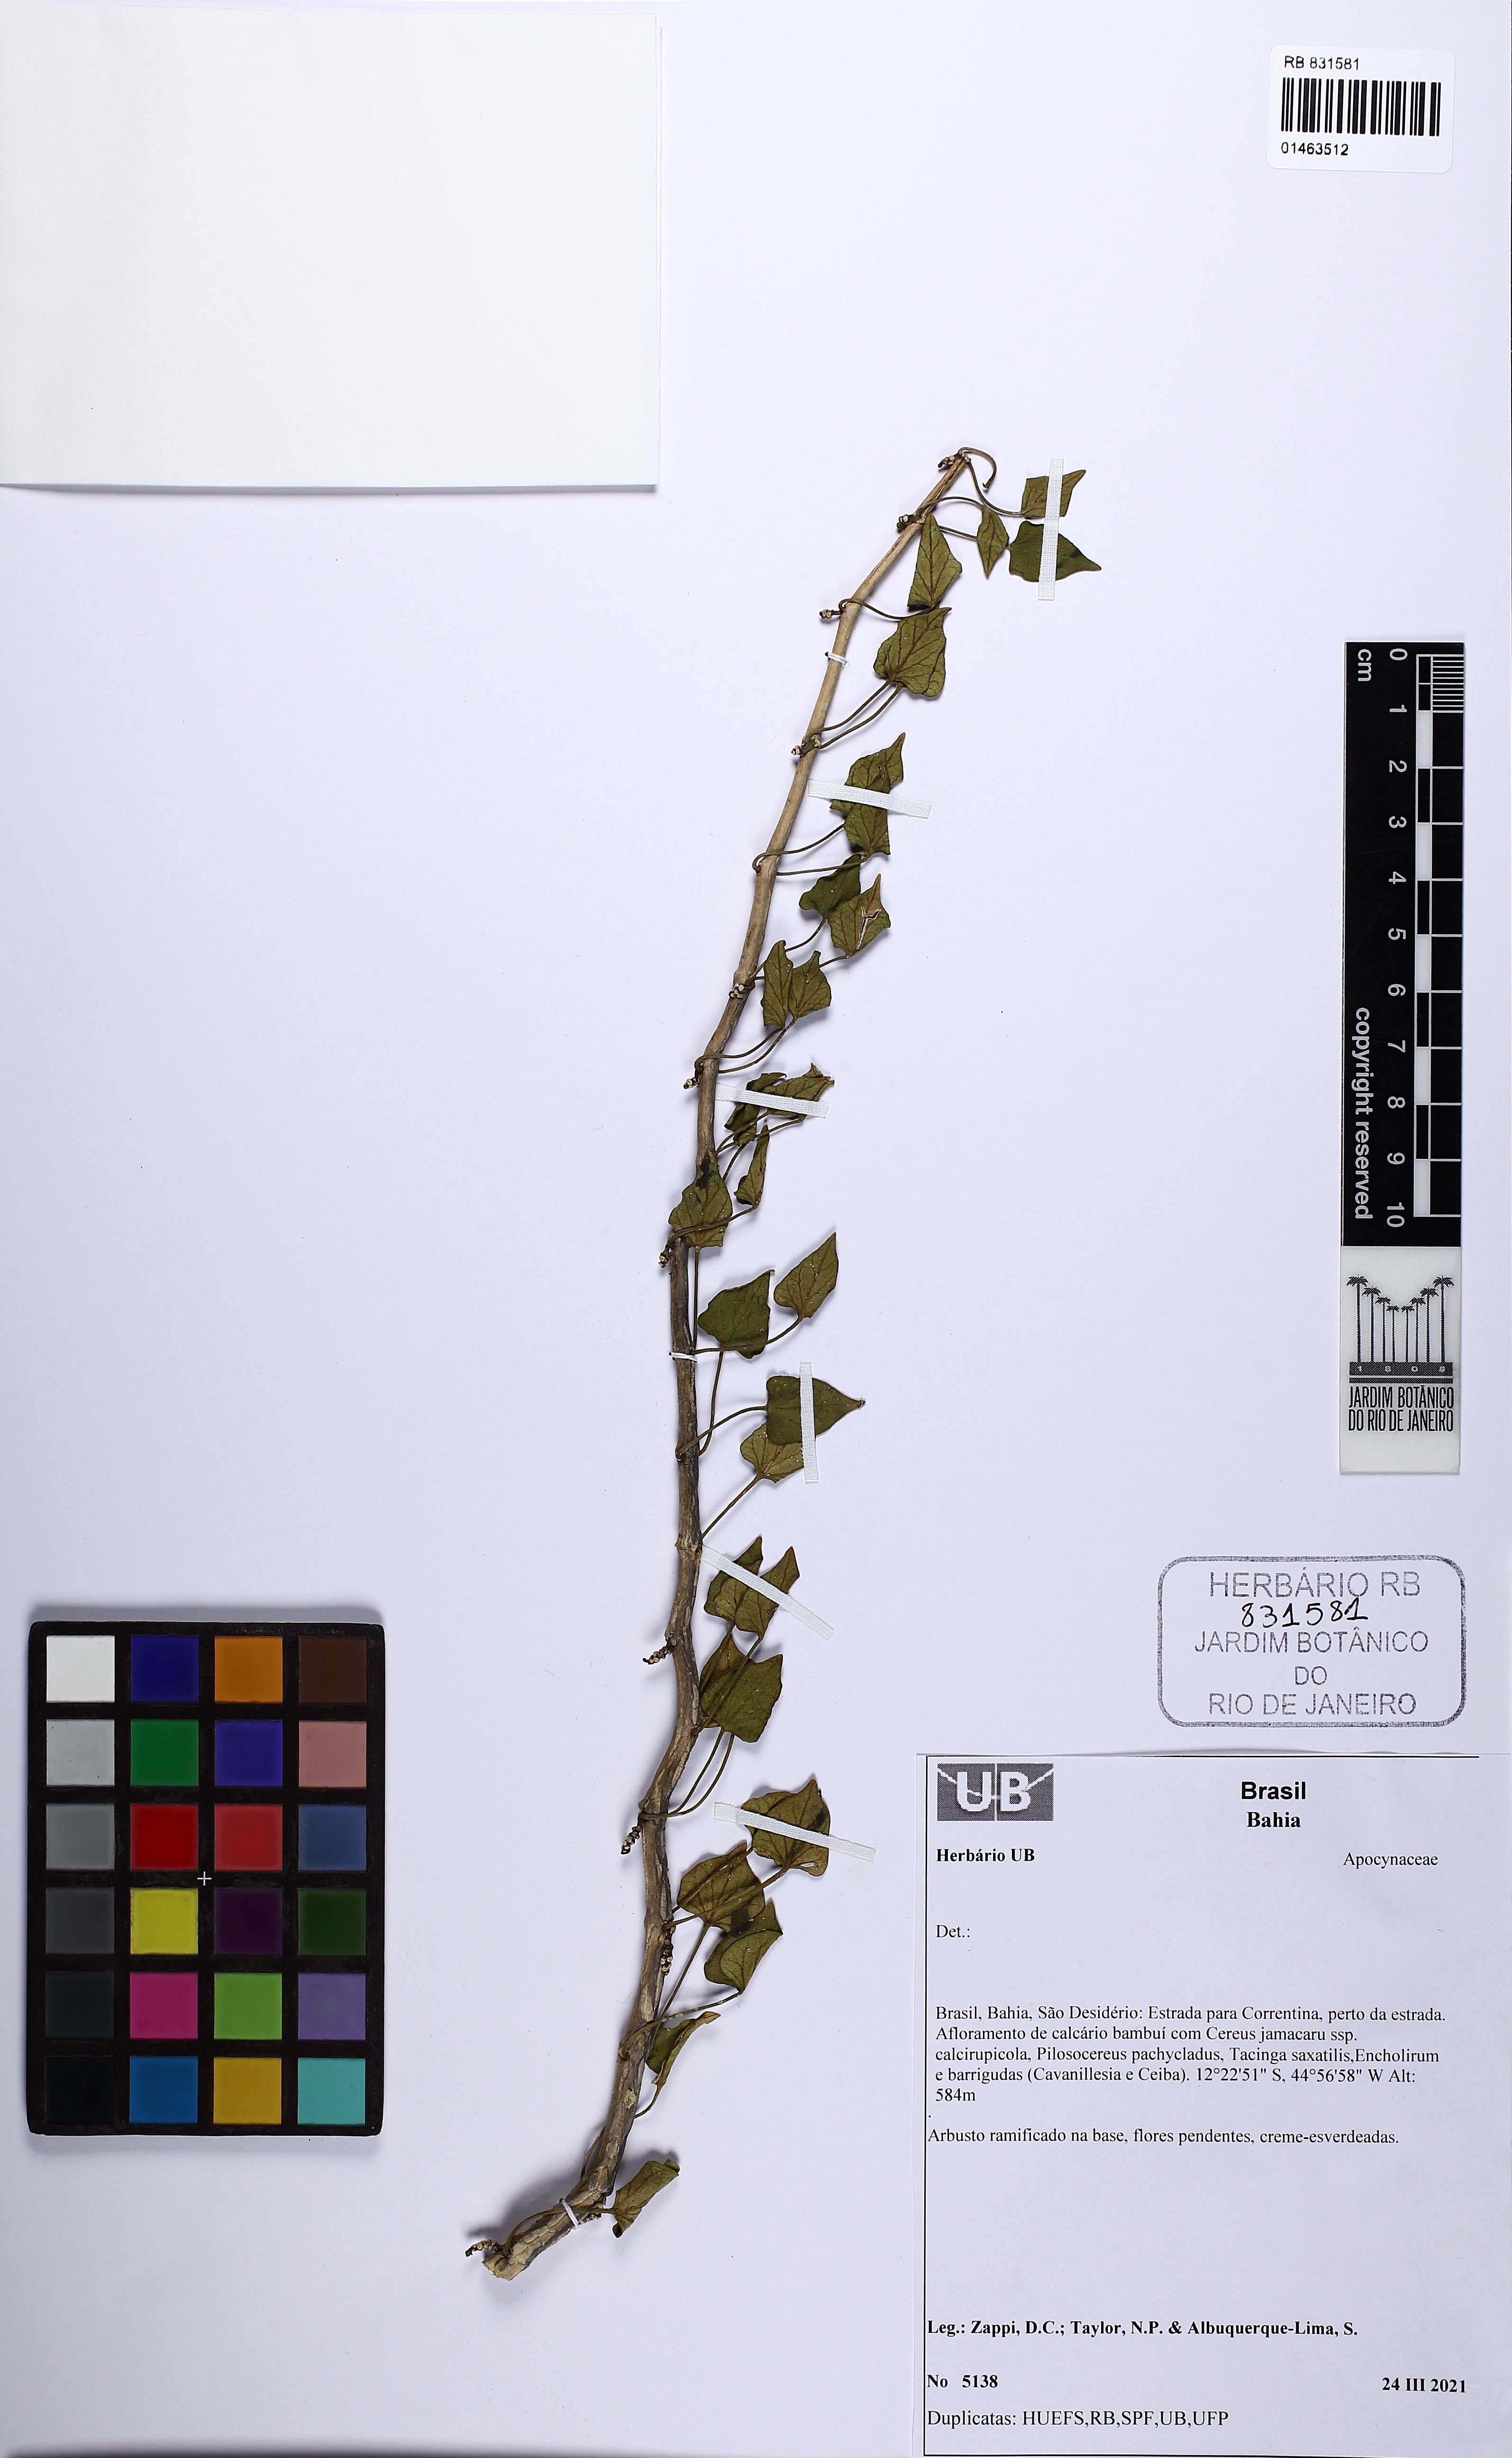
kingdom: Plantae
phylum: Tracheophyta
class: Magnoliopsida
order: Gentianales
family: Apocynaceae
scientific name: Apocynaceae
